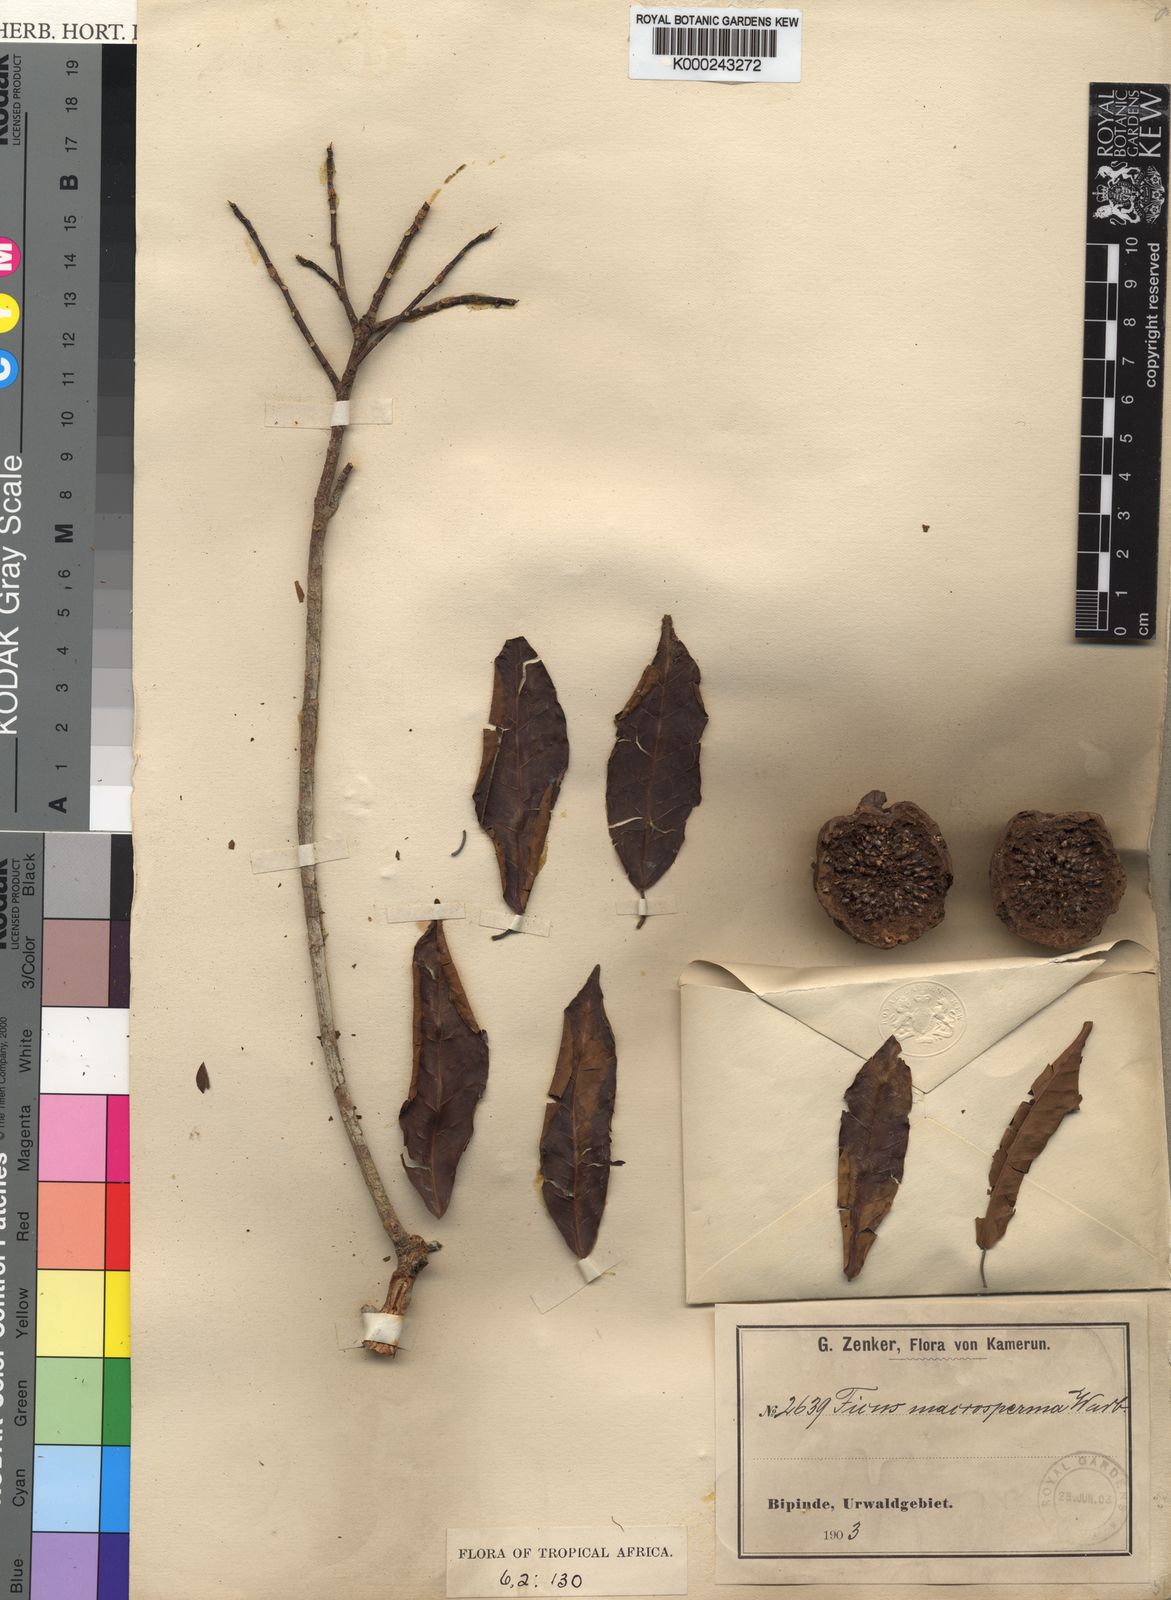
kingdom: Plantae
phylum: Tracheophyta
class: Magnoliopsida
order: Rosales
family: Moraceae
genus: Ficus
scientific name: Ficus sansibarica
